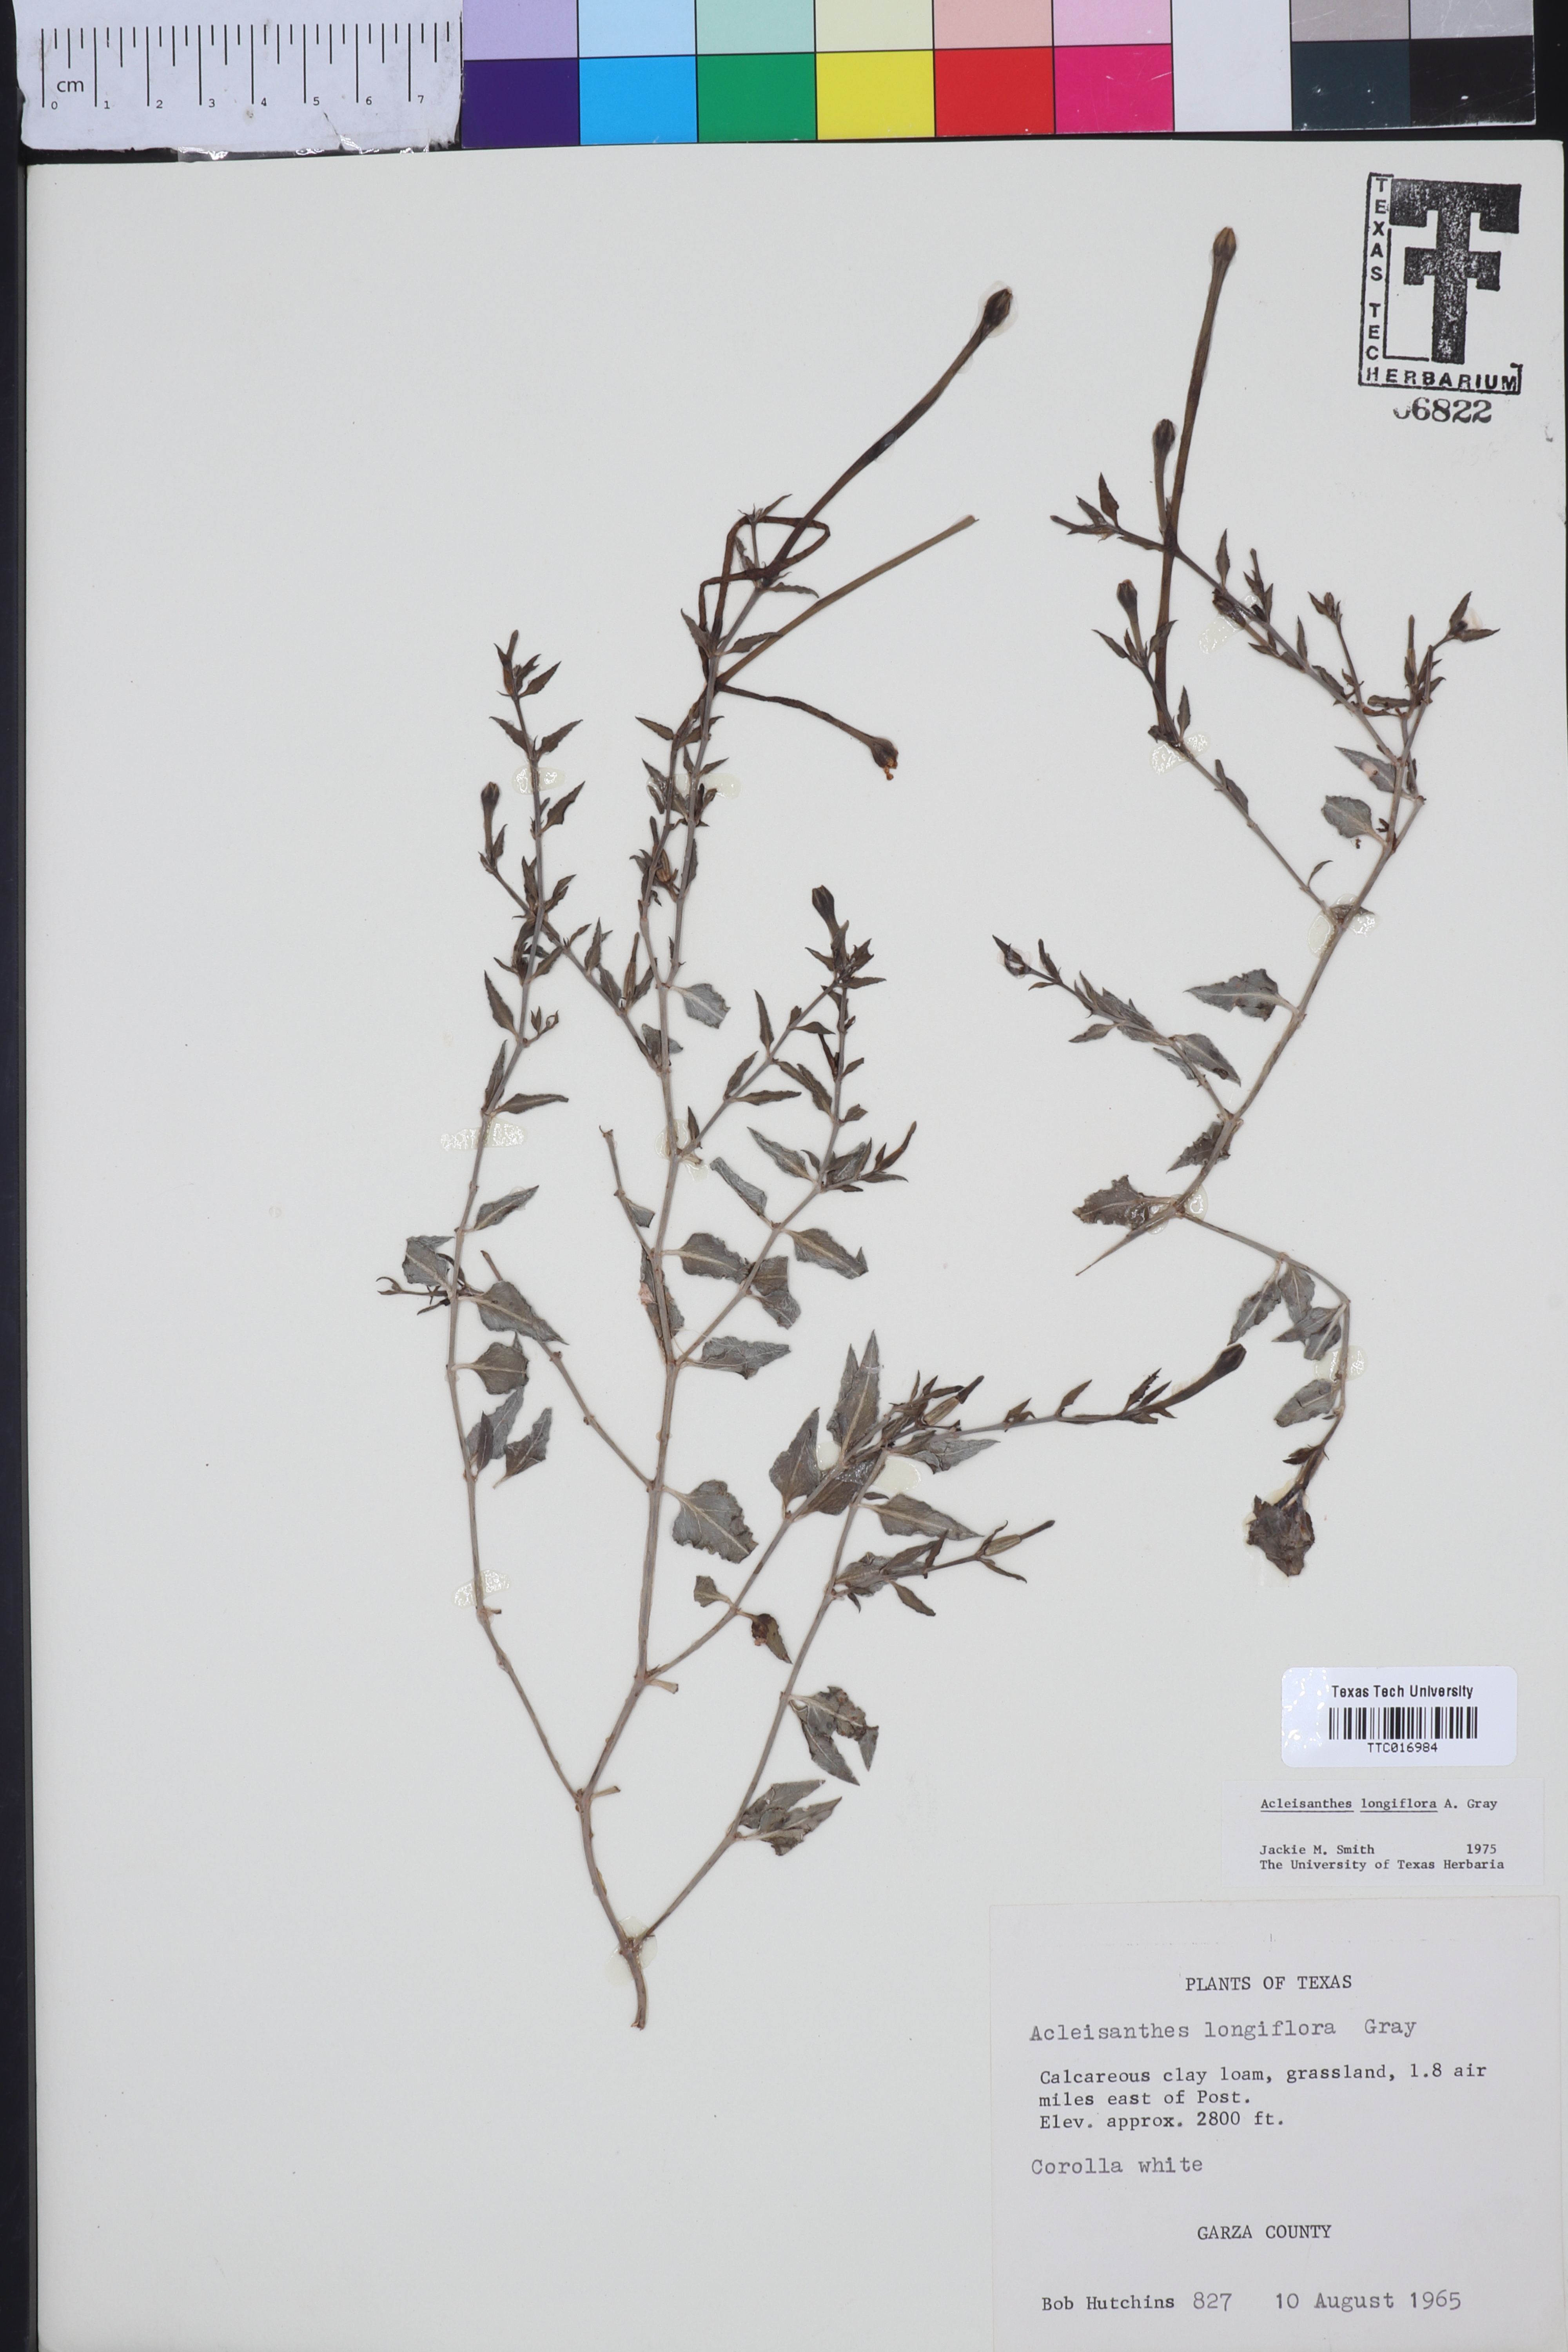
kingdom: Plantae
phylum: Tracheophyta
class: Magnoliopsida
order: Caryophyllales
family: Nyctaginaceae
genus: Acleisanthes
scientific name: Acleisanthes longiflora
